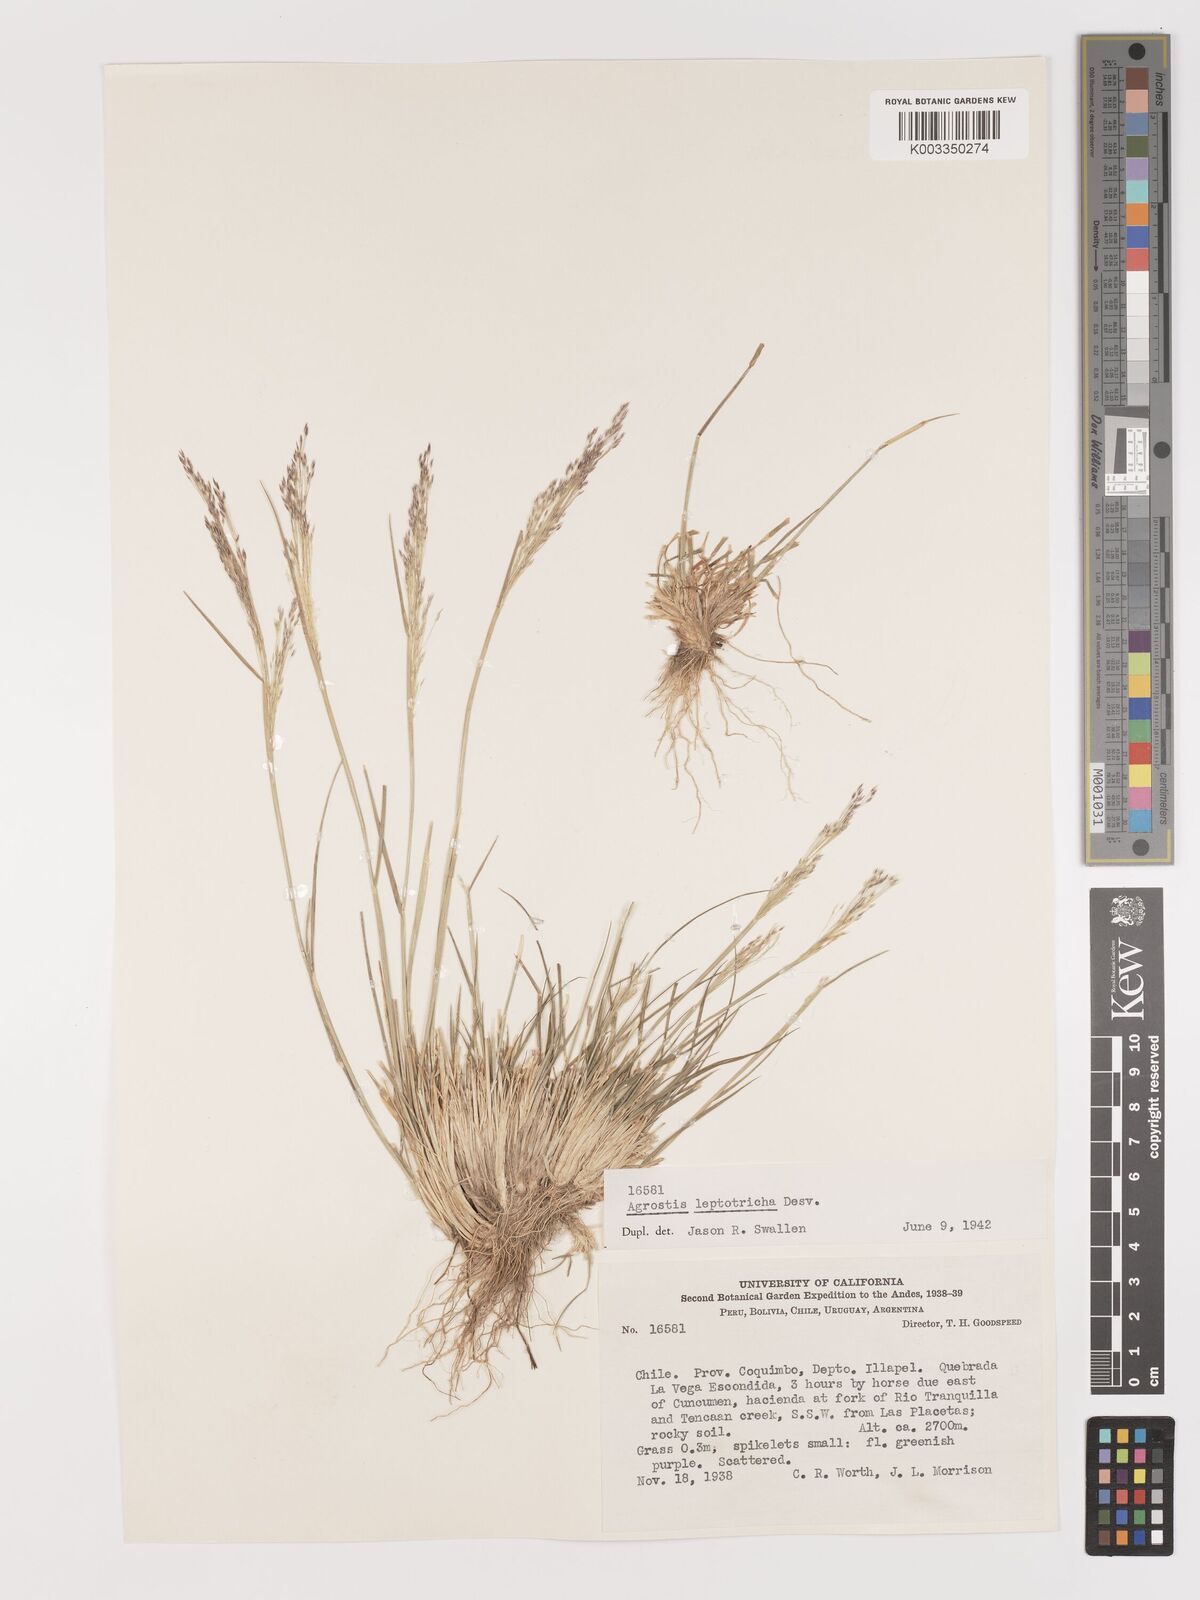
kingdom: Plantae
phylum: Tracheophyta
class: Liliopsida
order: Poales
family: Poaceae
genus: Agrostis
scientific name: Agrostis leptotricha
